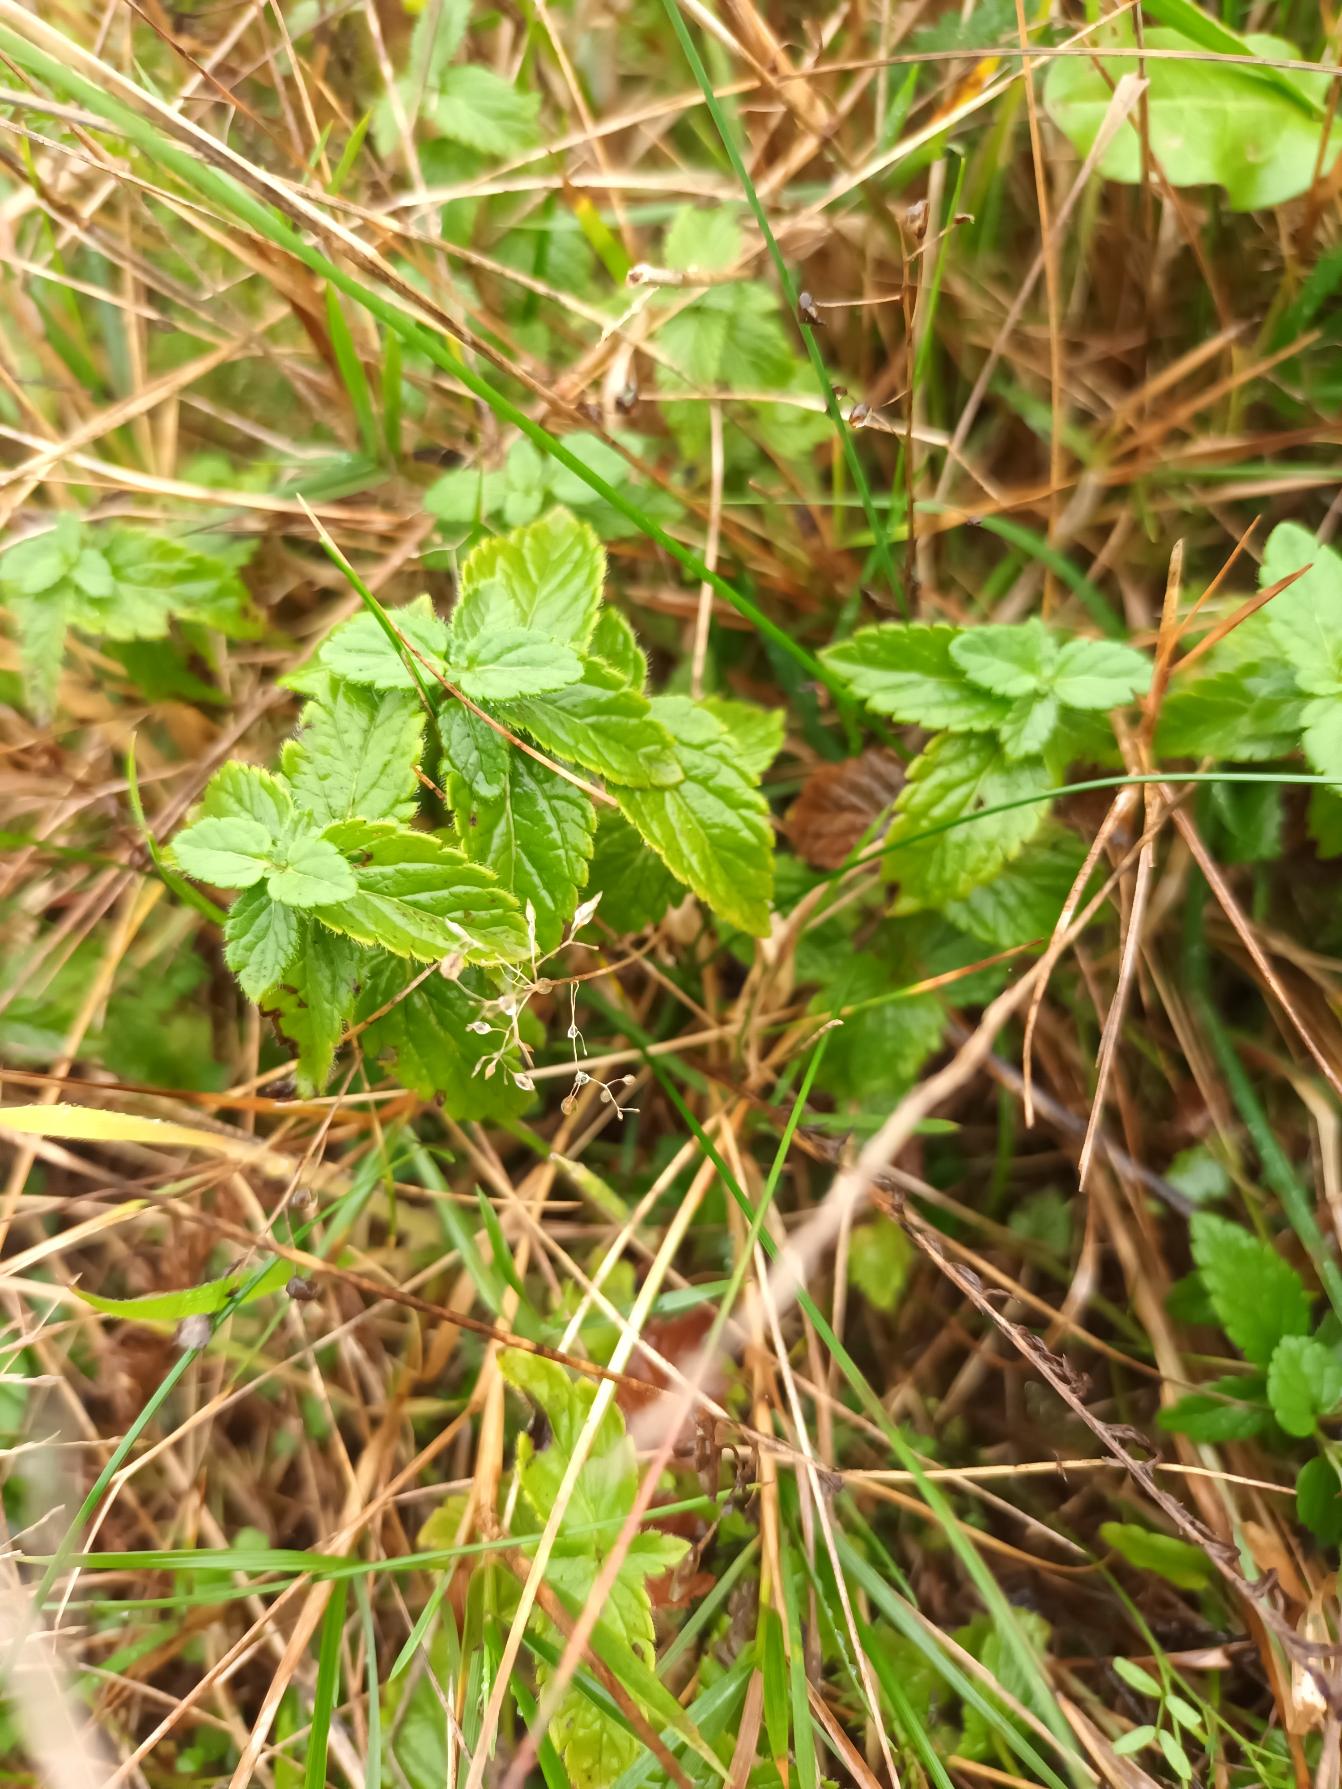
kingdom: Plantae
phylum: Tracheophyta
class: Magnoliopsida
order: Lamiales
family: Plantaginaceae
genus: Veronica
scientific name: Veronica chamaedrys
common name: Tveskægget ærenpris
